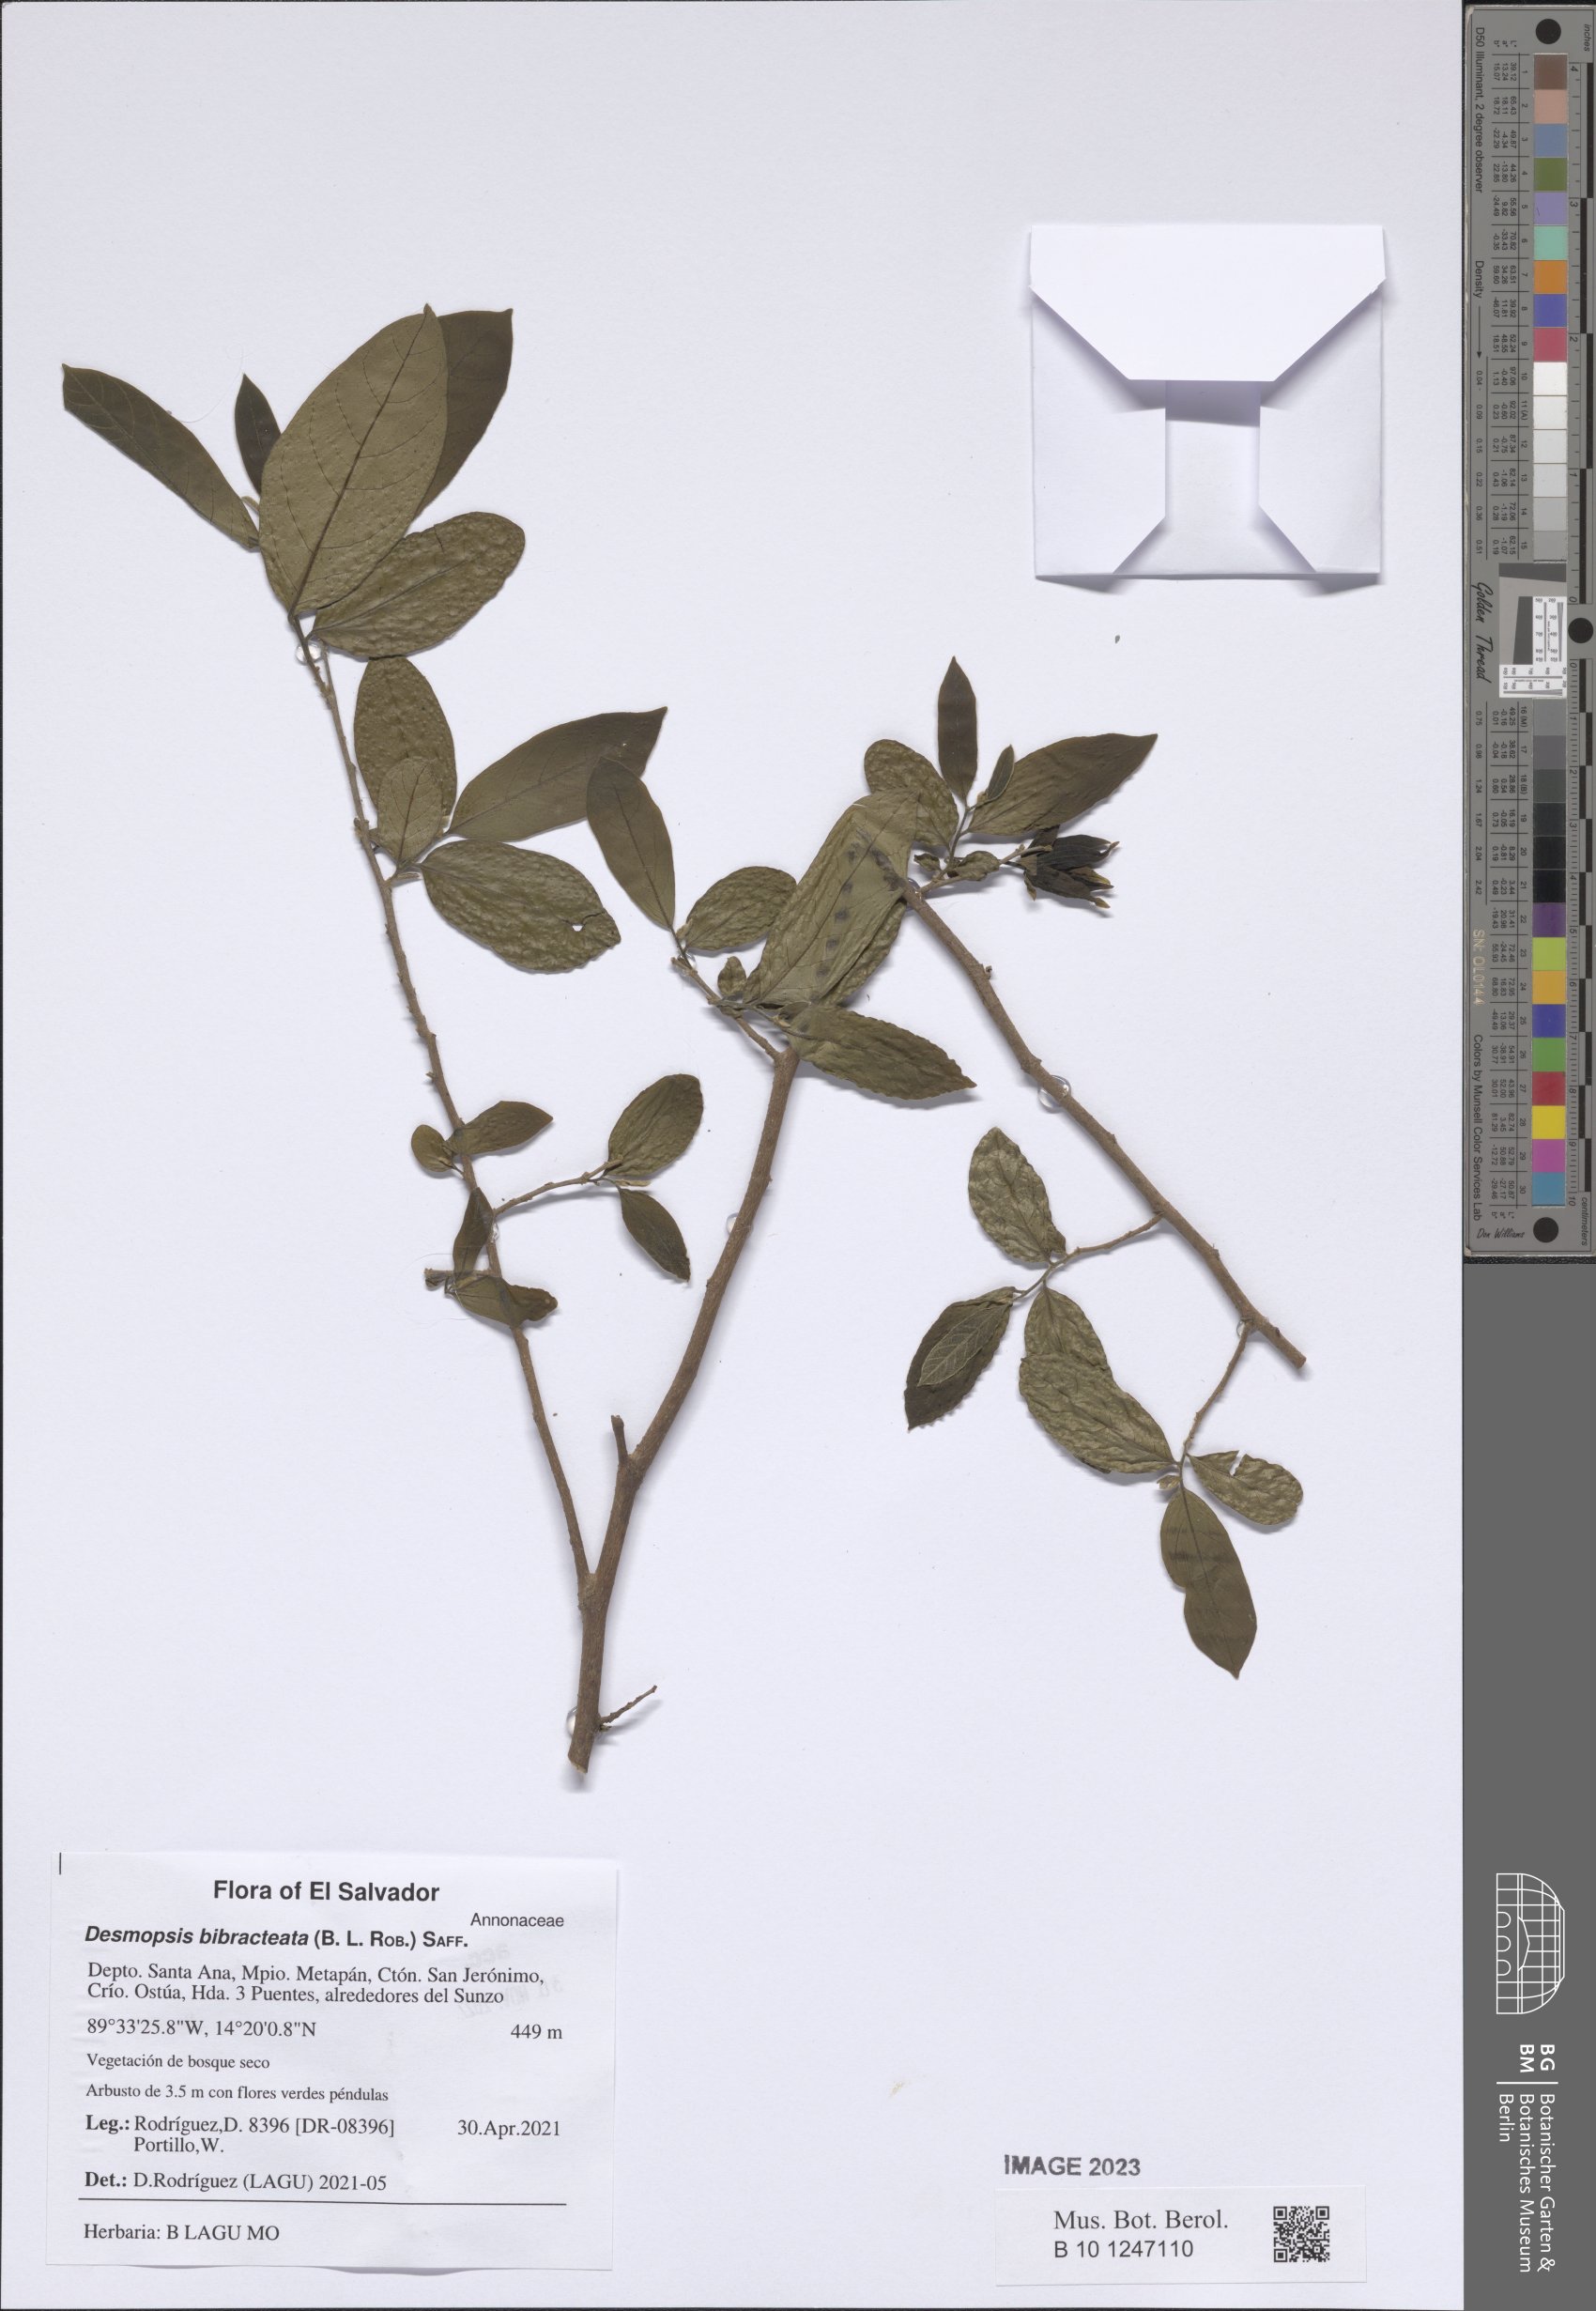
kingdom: Plantae
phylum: Tracheophyta
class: Magnoliopsida
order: Magnoliales
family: Annonaceae
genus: Desmopsis
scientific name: Desmopsis bibracteata
